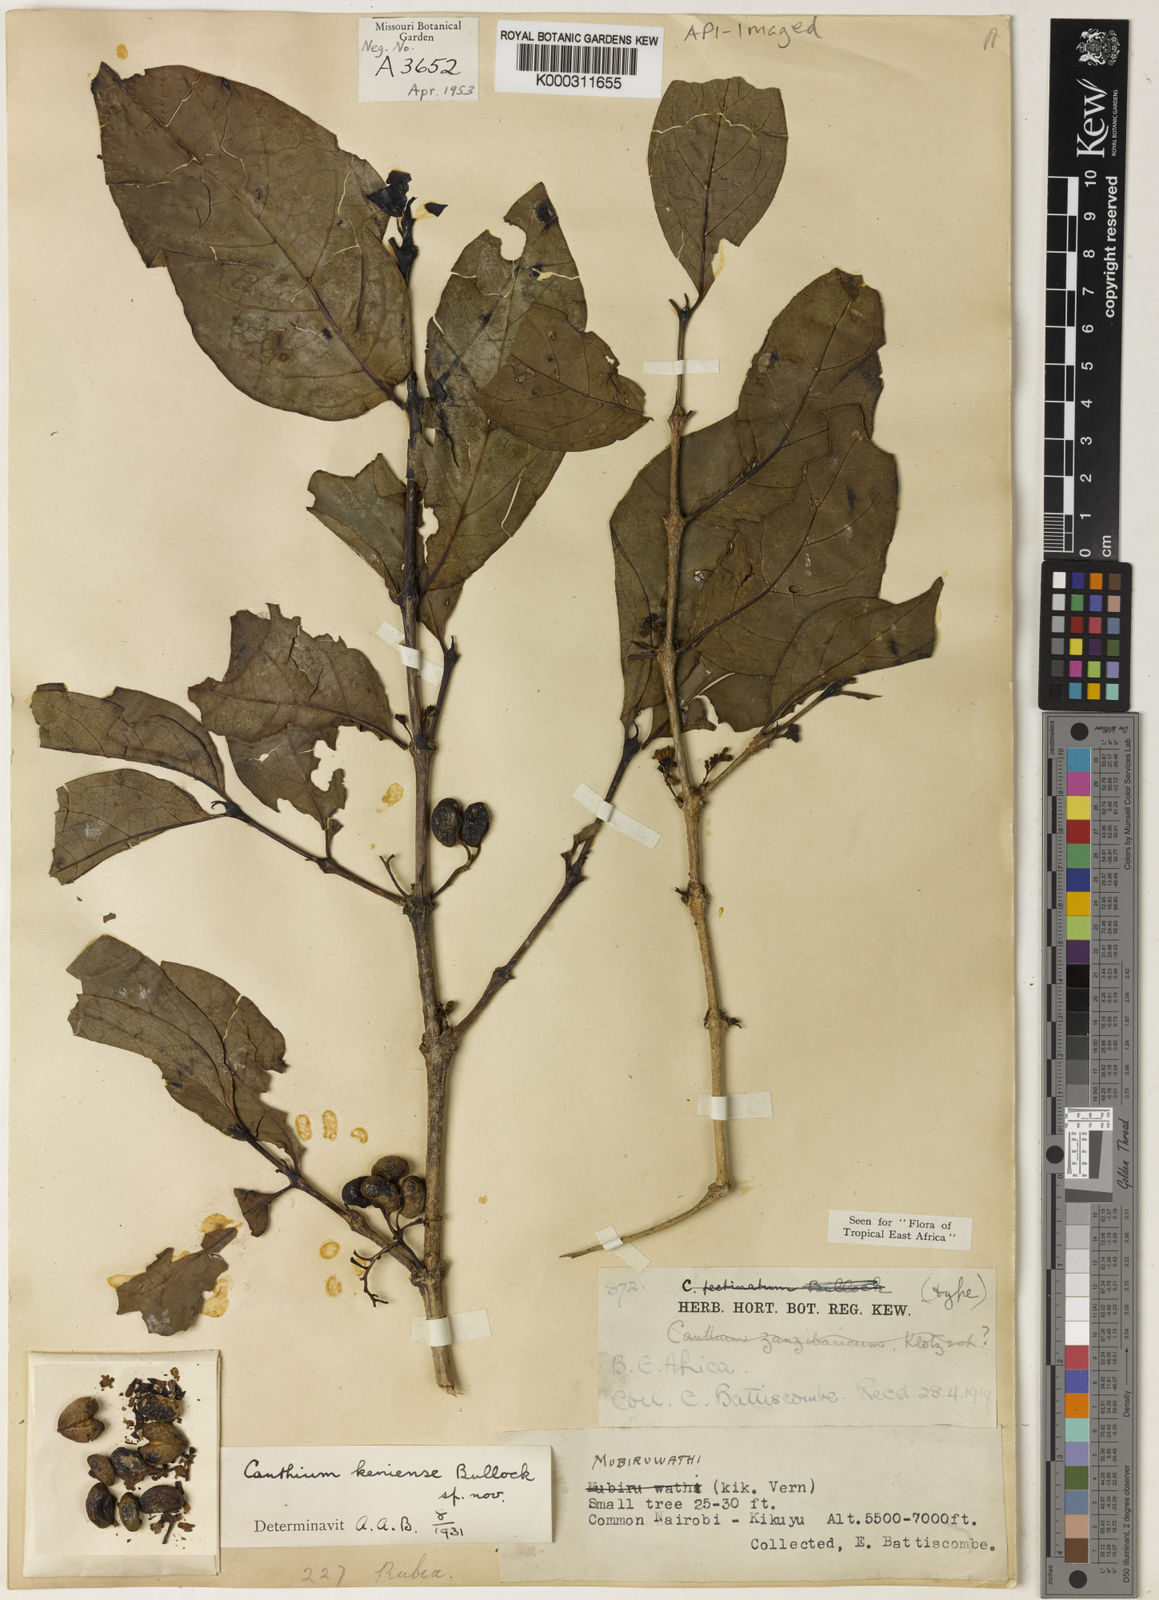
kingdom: Plantae
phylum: Tracheophyta
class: Magnoliopsida
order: Gentianales
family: Rubiaceae
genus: Afrocanthium
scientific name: Afrocanthium keniense
